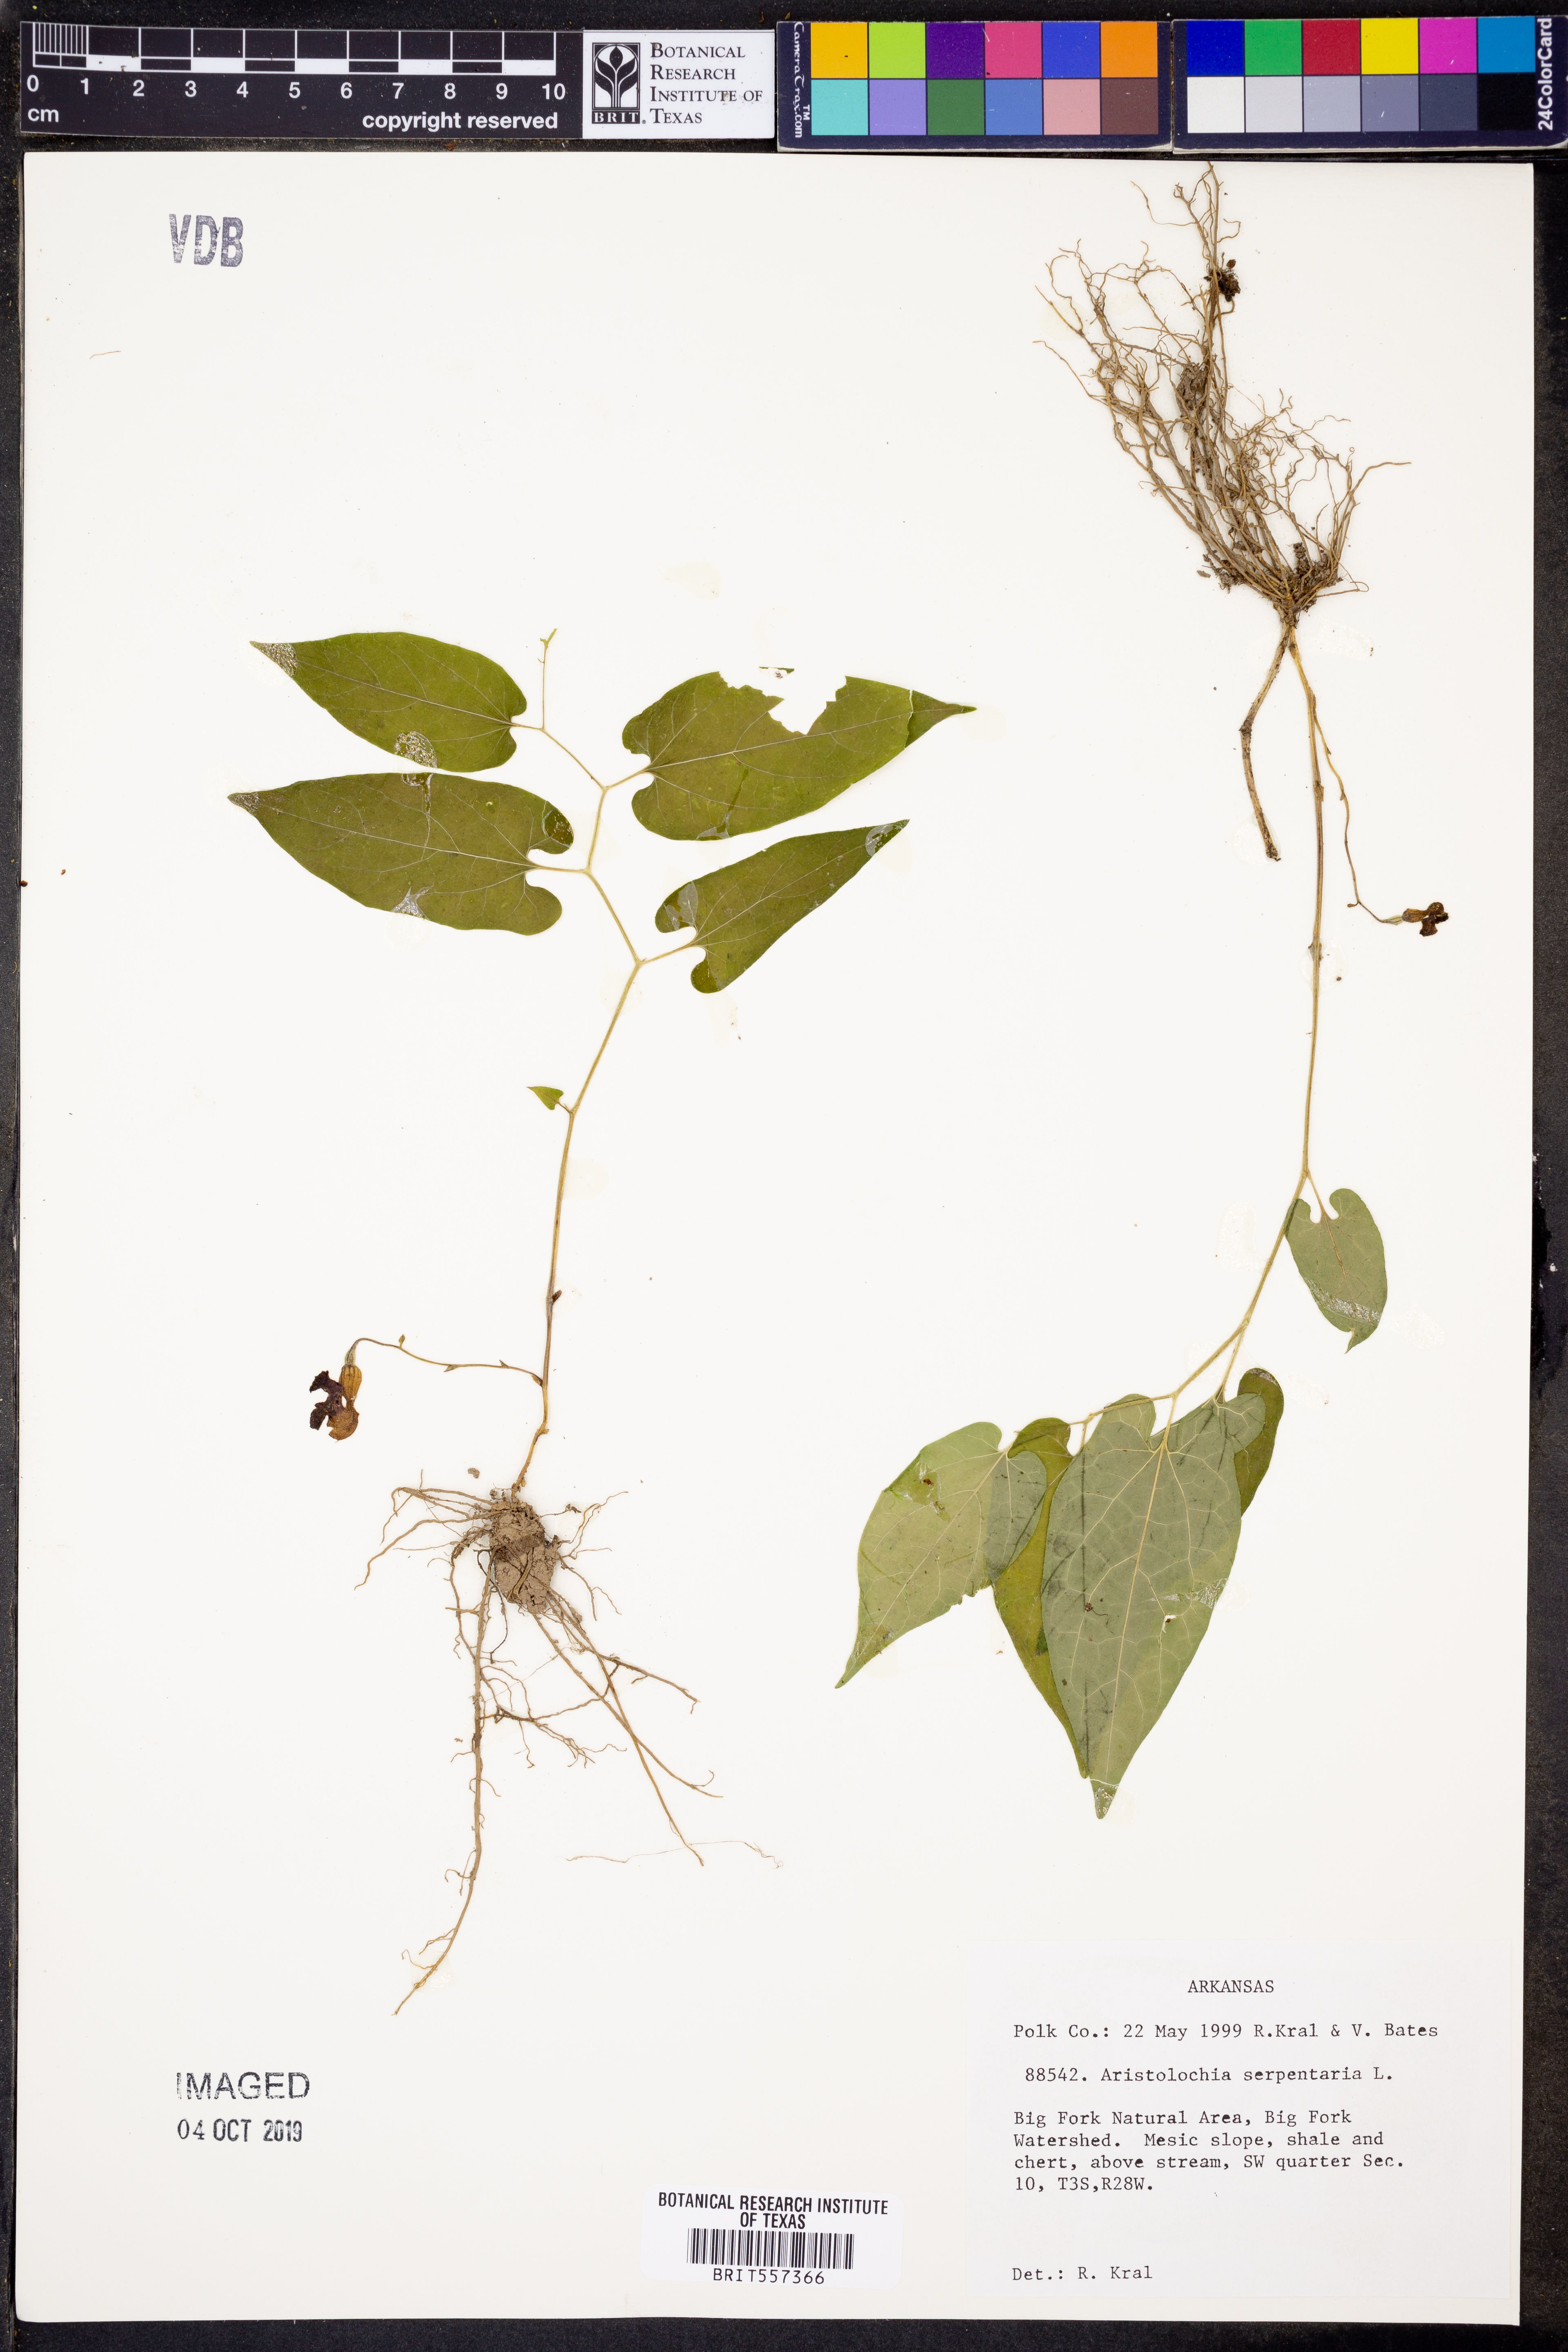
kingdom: Plantae
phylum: Tracheophyta
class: Magnoliopsida
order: Piperales
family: Aristolochiaceae
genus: Endodeca
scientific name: Endodeca serpentaria
